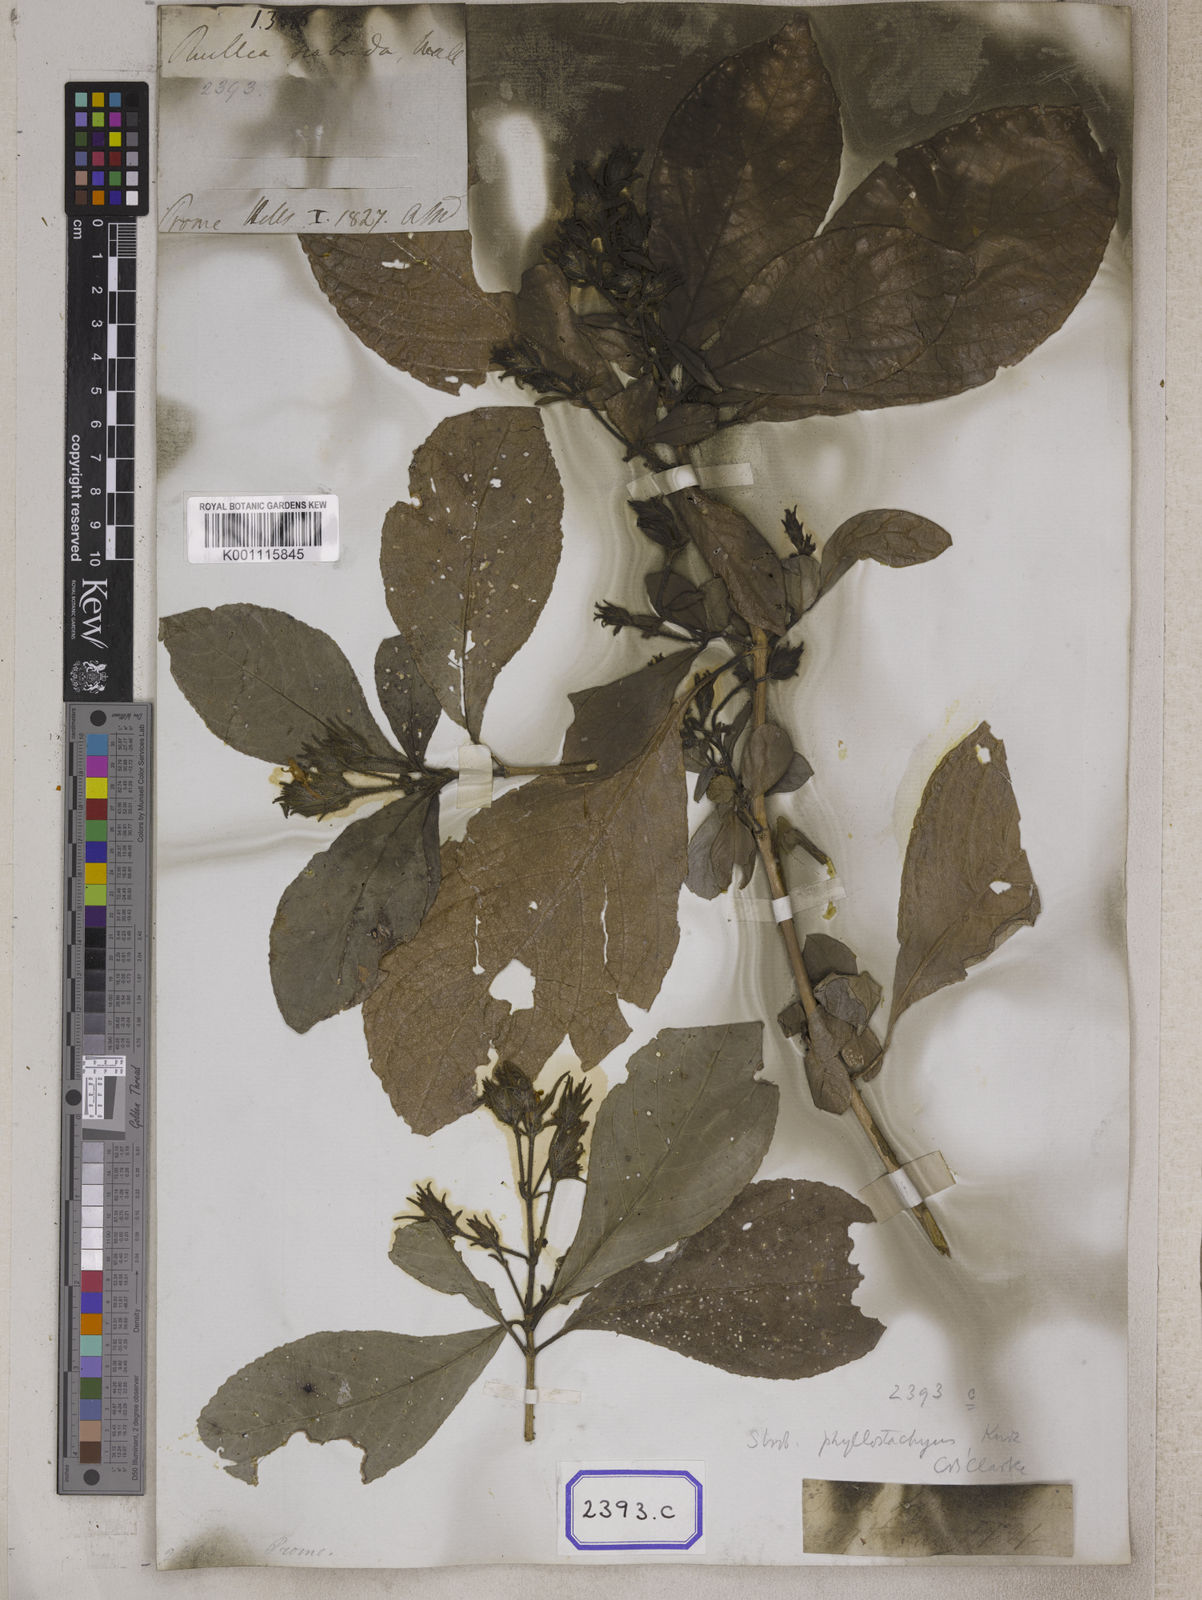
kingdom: Plantae
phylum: Tracheophyta
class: Magnoliopsida
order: Lamiales
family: Acanthaceae
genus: Ruellia
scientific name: Ruellia
